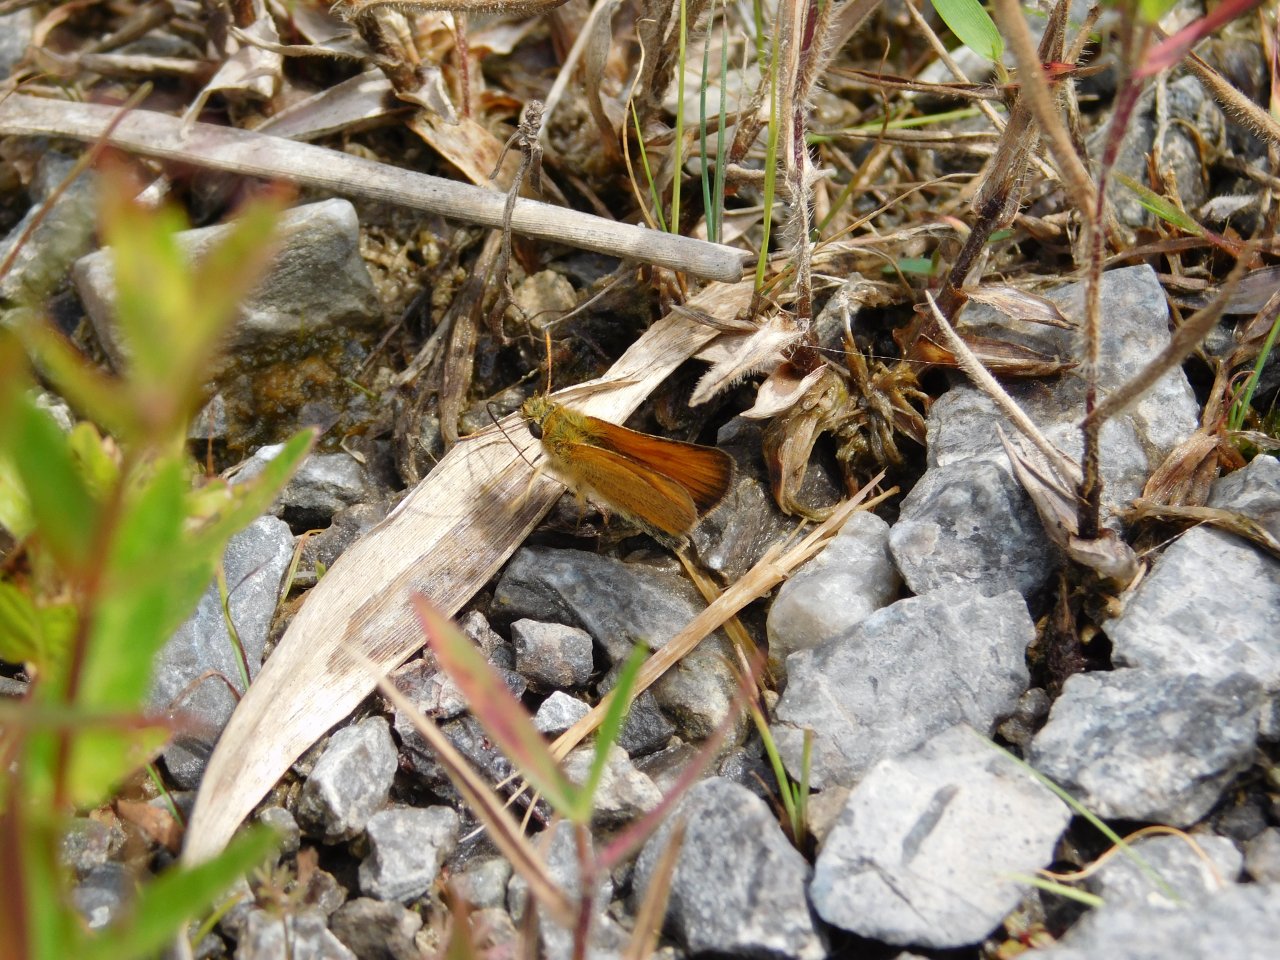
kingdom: Animalia
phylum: Arthropoda
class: Insecta
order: Lepidoptera
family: Hesperiidae
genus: Thymelicus
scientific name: Thymelicus lineola
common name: European Skipper
